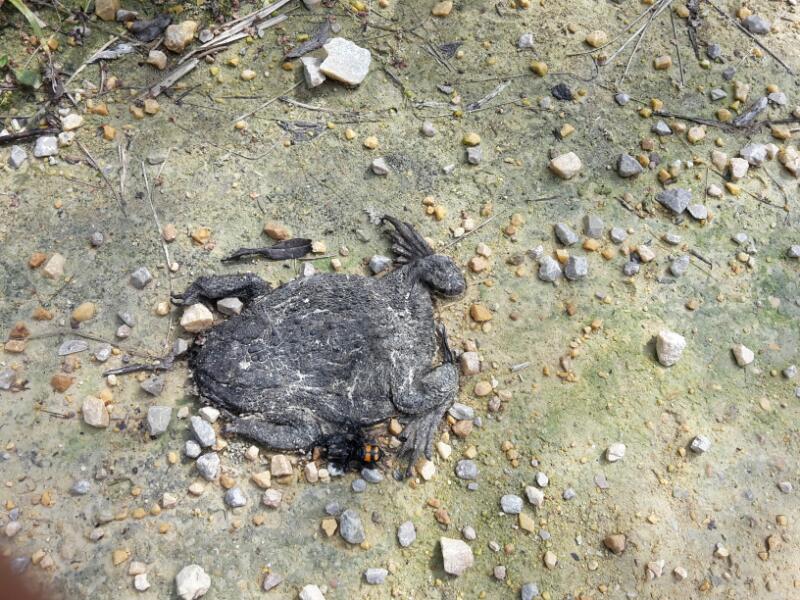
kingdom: Animalia
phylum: Chordata
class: Amphibia
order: Anura
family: Bufonidae
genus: Bufo
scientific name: Bufo bufo
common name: Common toad
